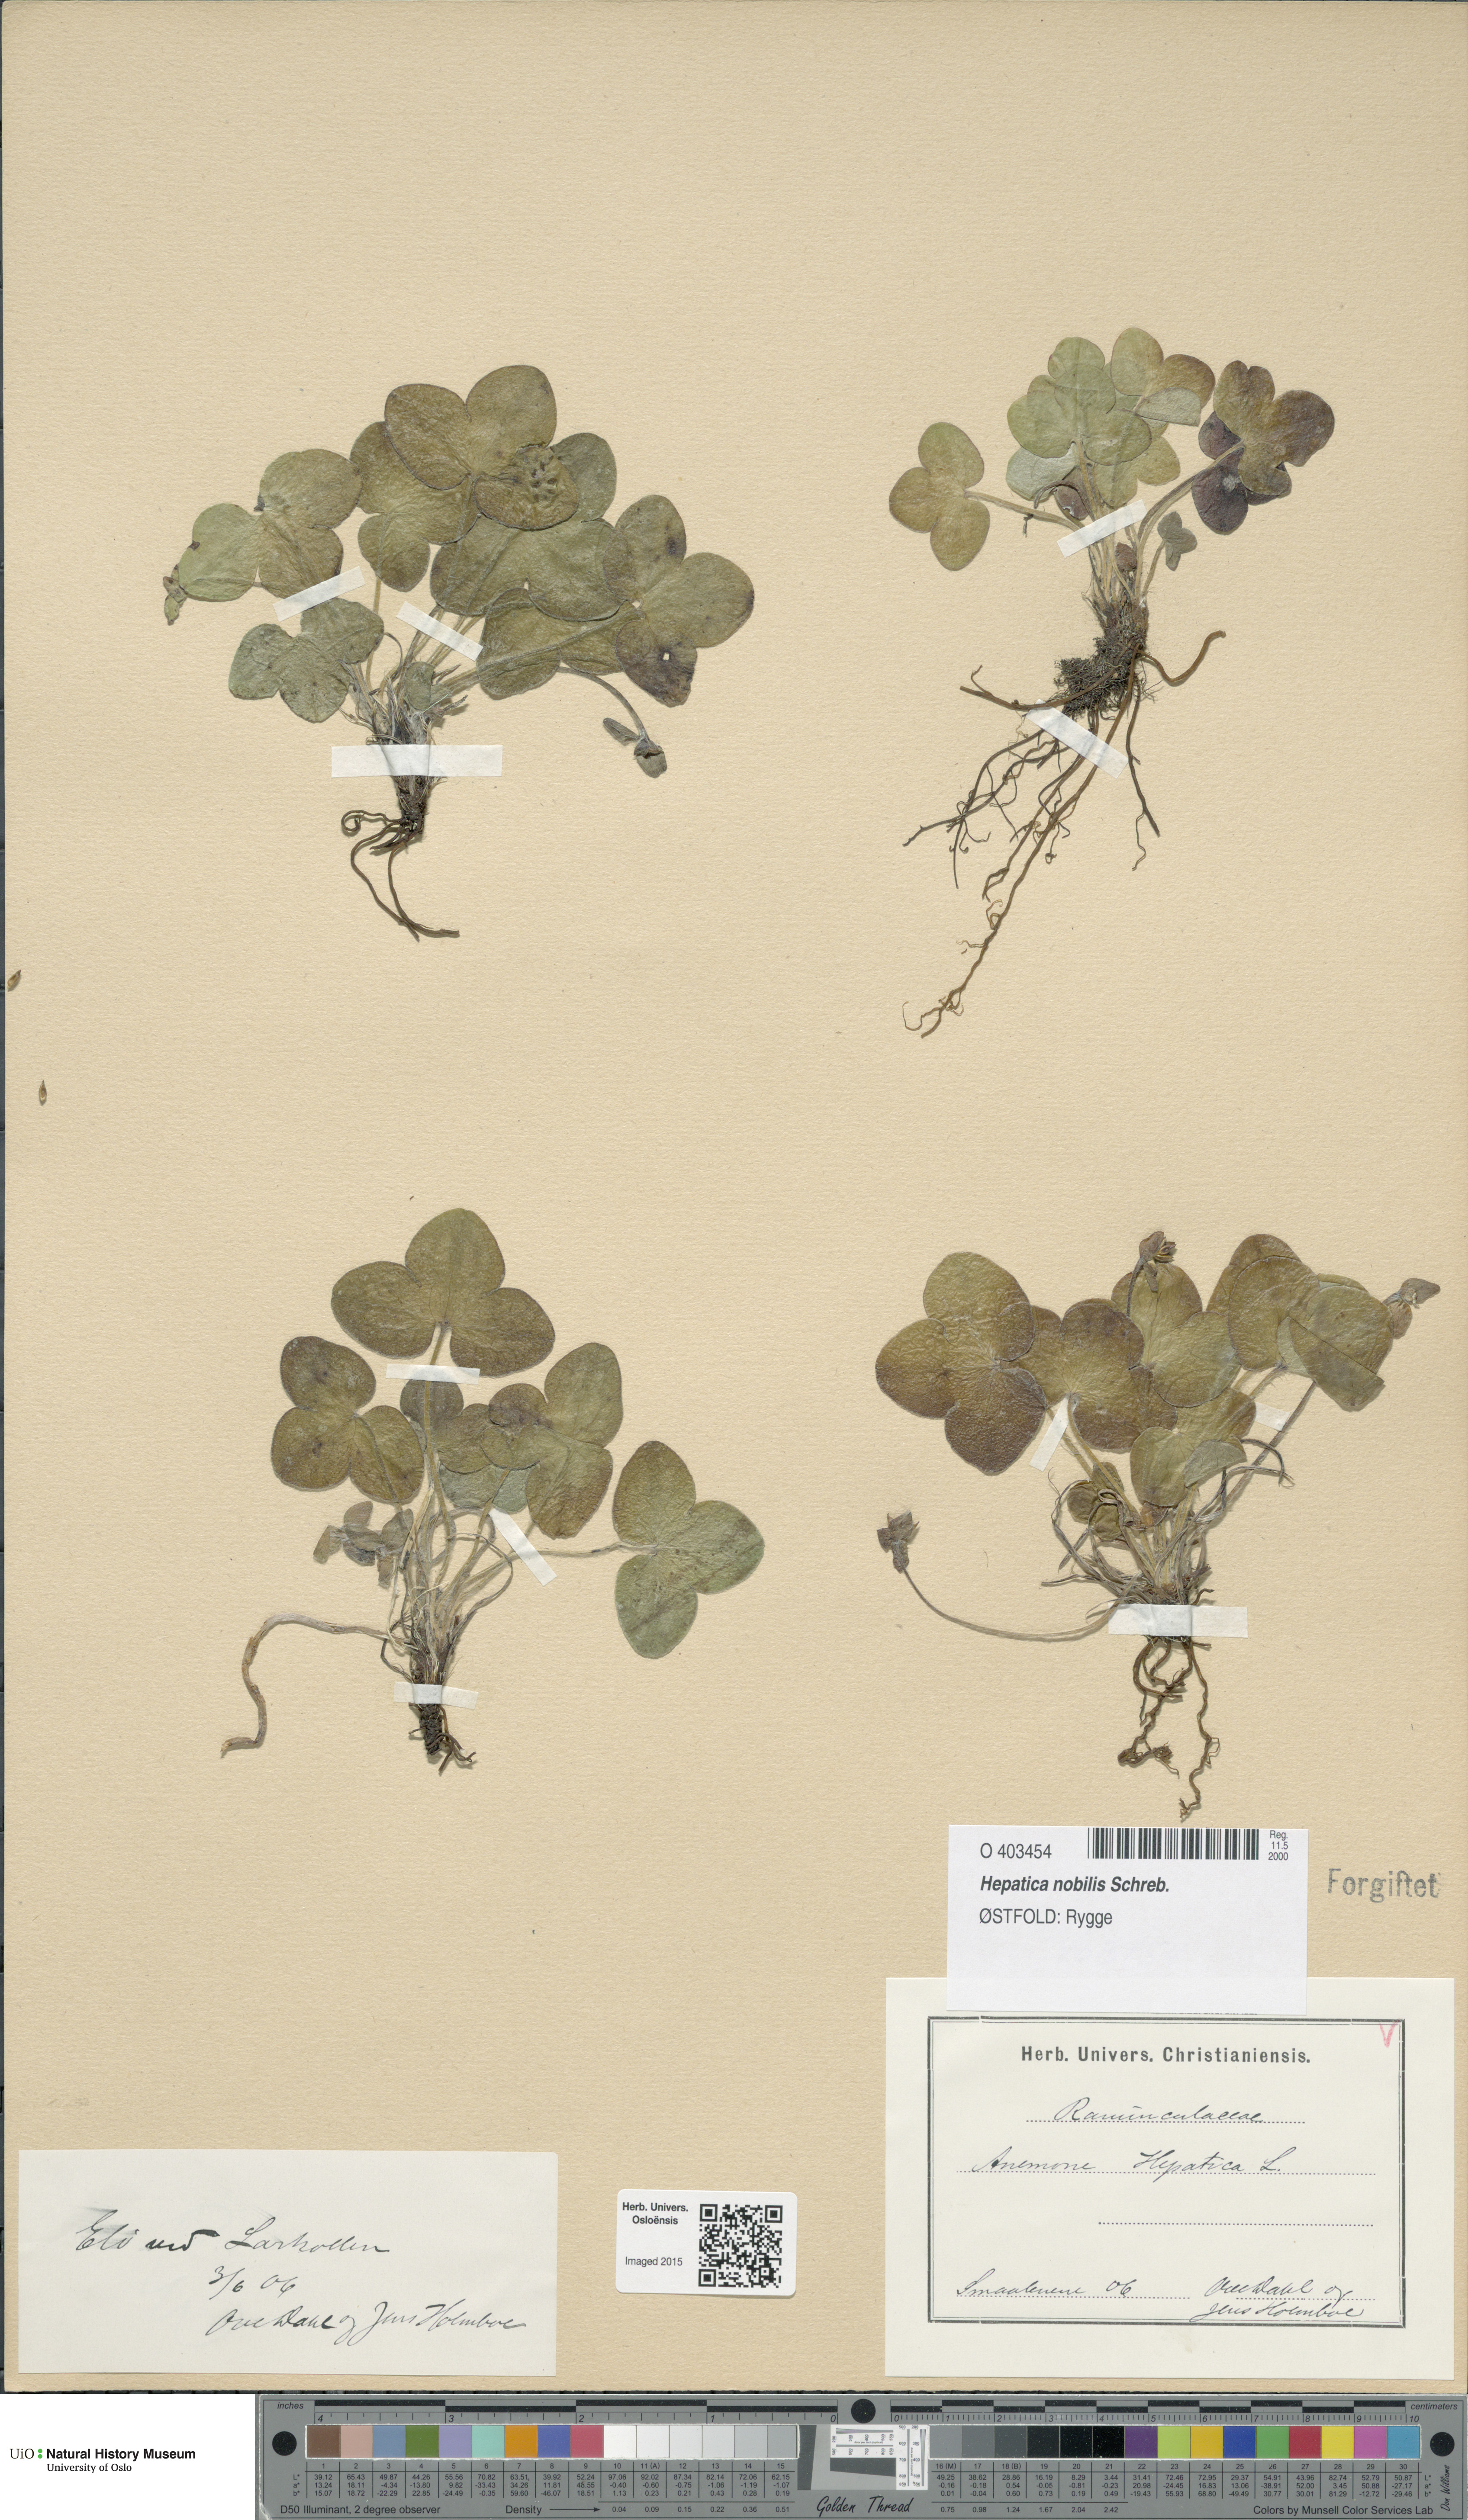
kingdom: Plantae
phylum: Tracheophyta
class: Magnoliopsida
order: Ranunculales
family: Ranunculaceae
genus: Hepatica
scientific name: Hepatica nobilis
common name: Liverleaf
